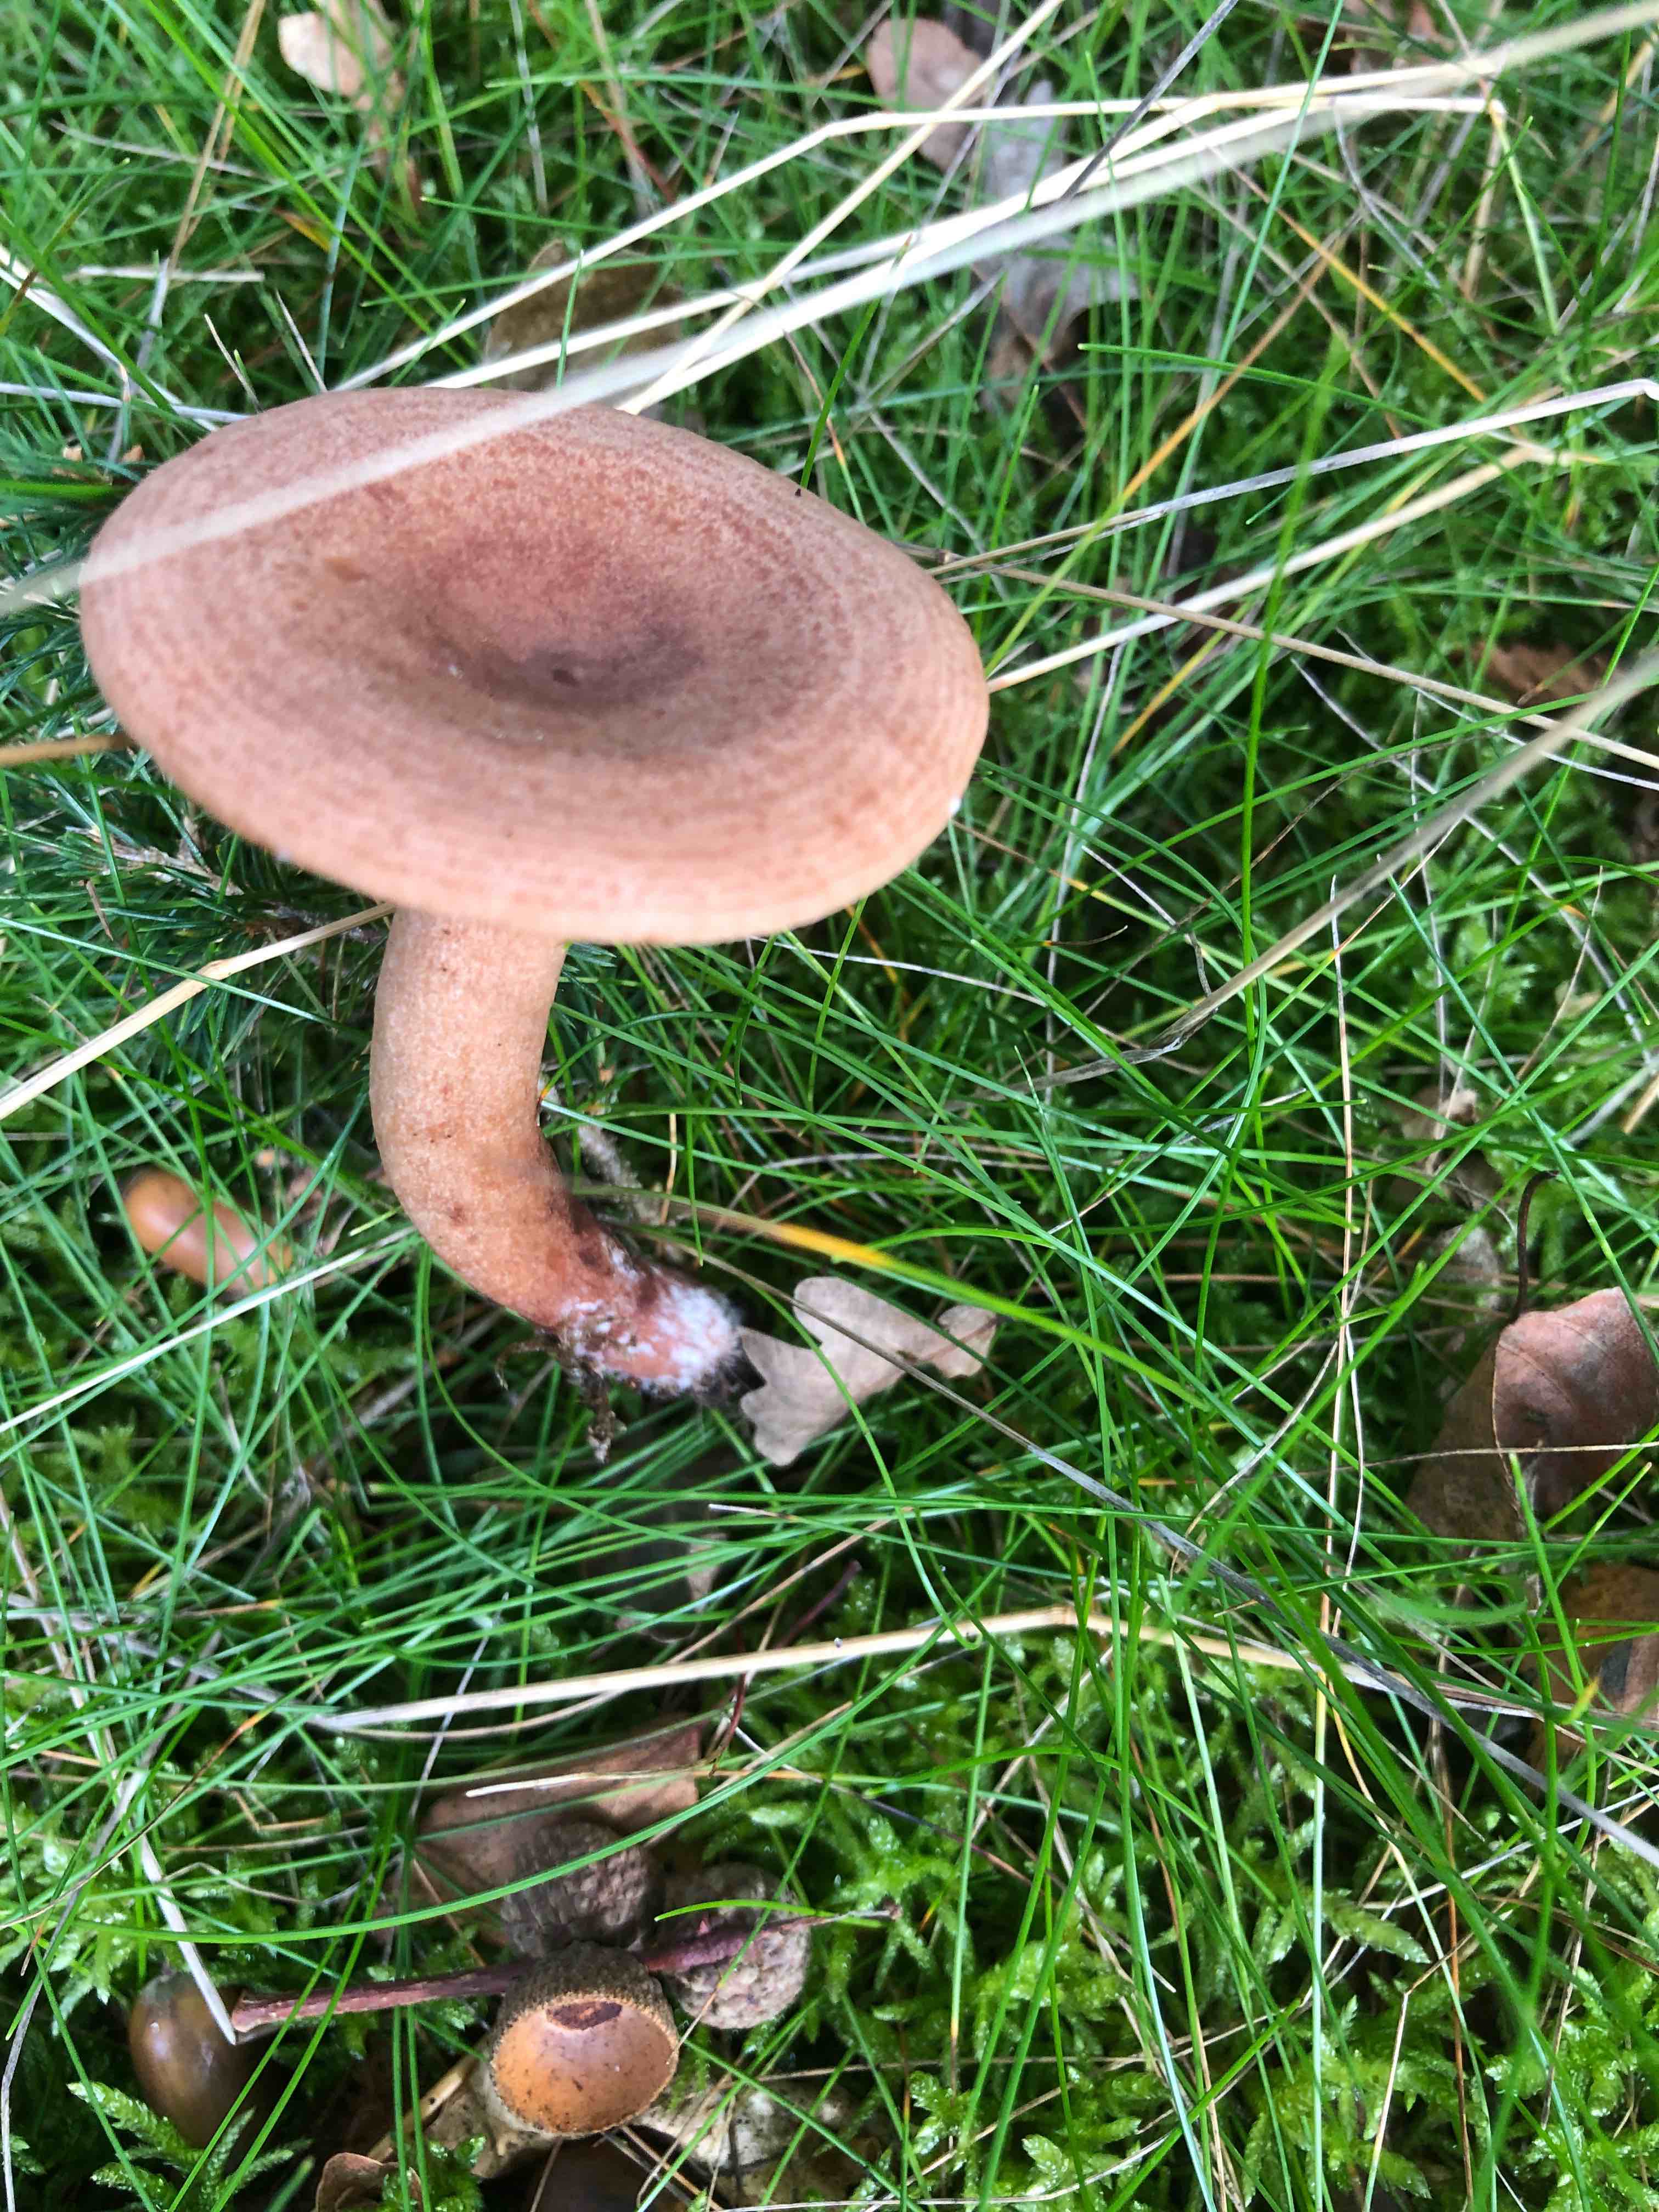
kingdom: Fungi
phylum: Basidiomycota
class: Agaricomycetes
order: Russulales
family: Russulaceae
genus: Lactarius
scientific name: Lactarius quietus
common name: ege-mælkehat
